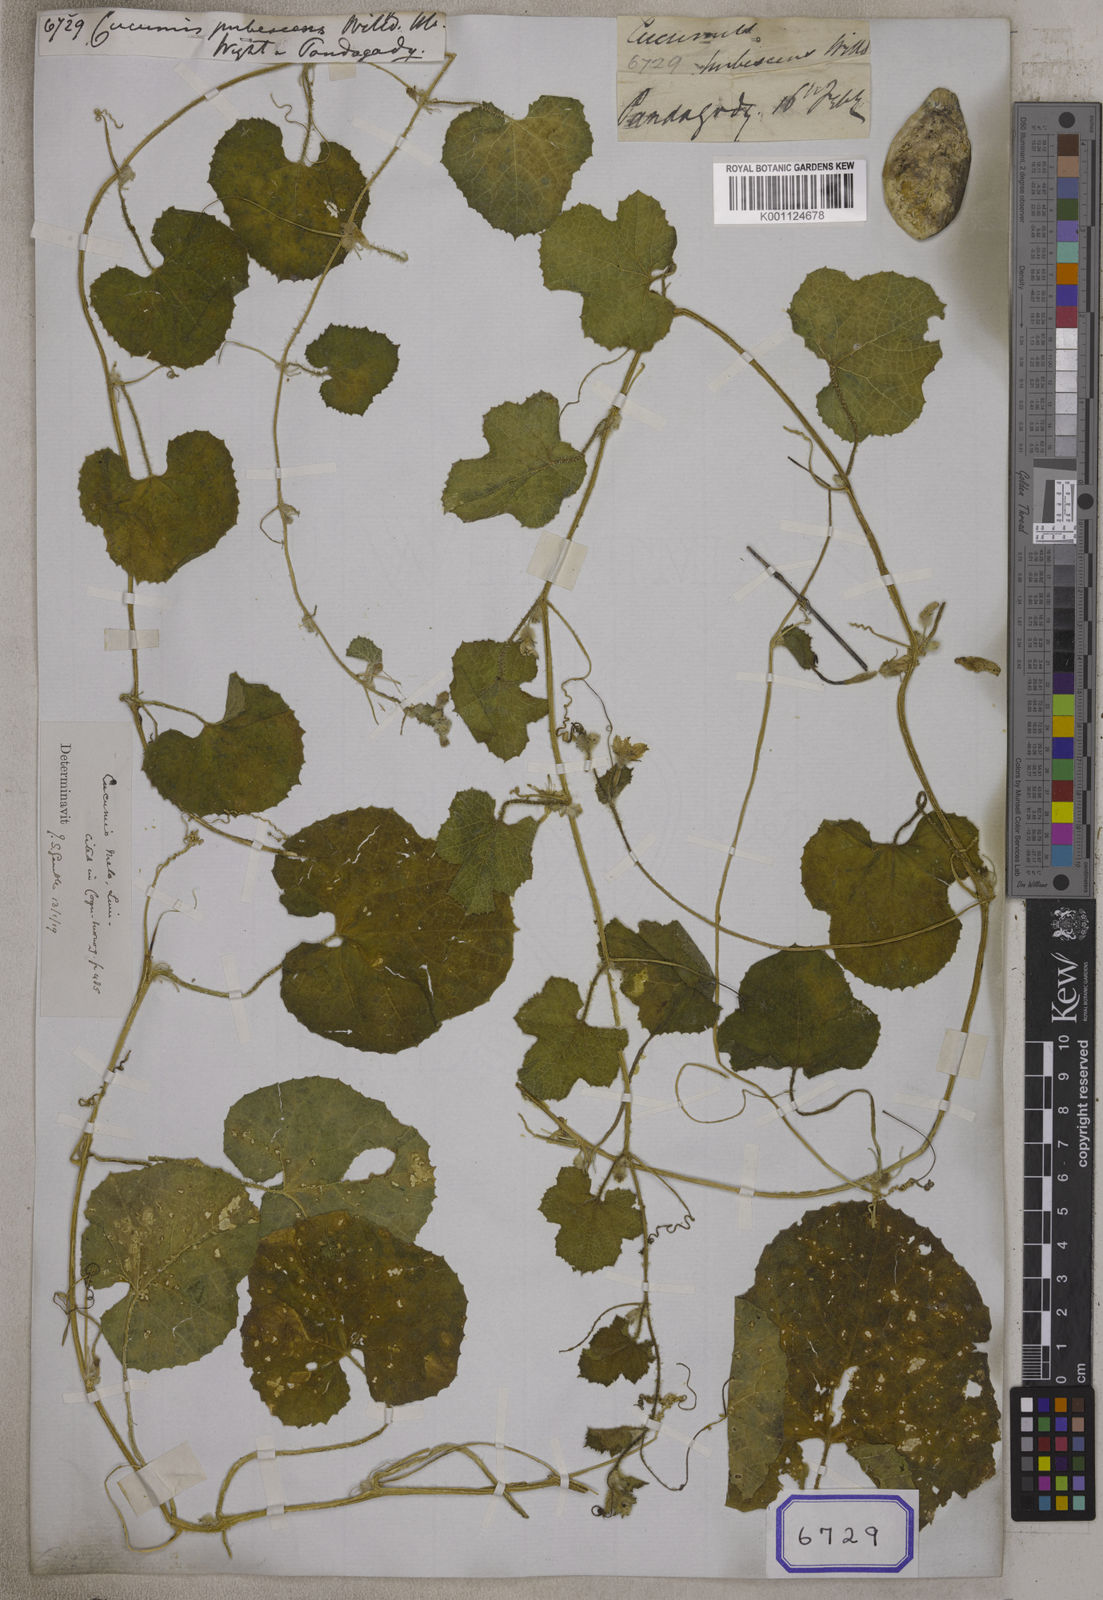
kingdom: Plantae
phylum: Tracheophyta
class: Magnoliopsida
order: Cucurbitales
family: Cucurbitaceae
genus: Cucumis
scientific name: Cucumis melo
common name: Melon
